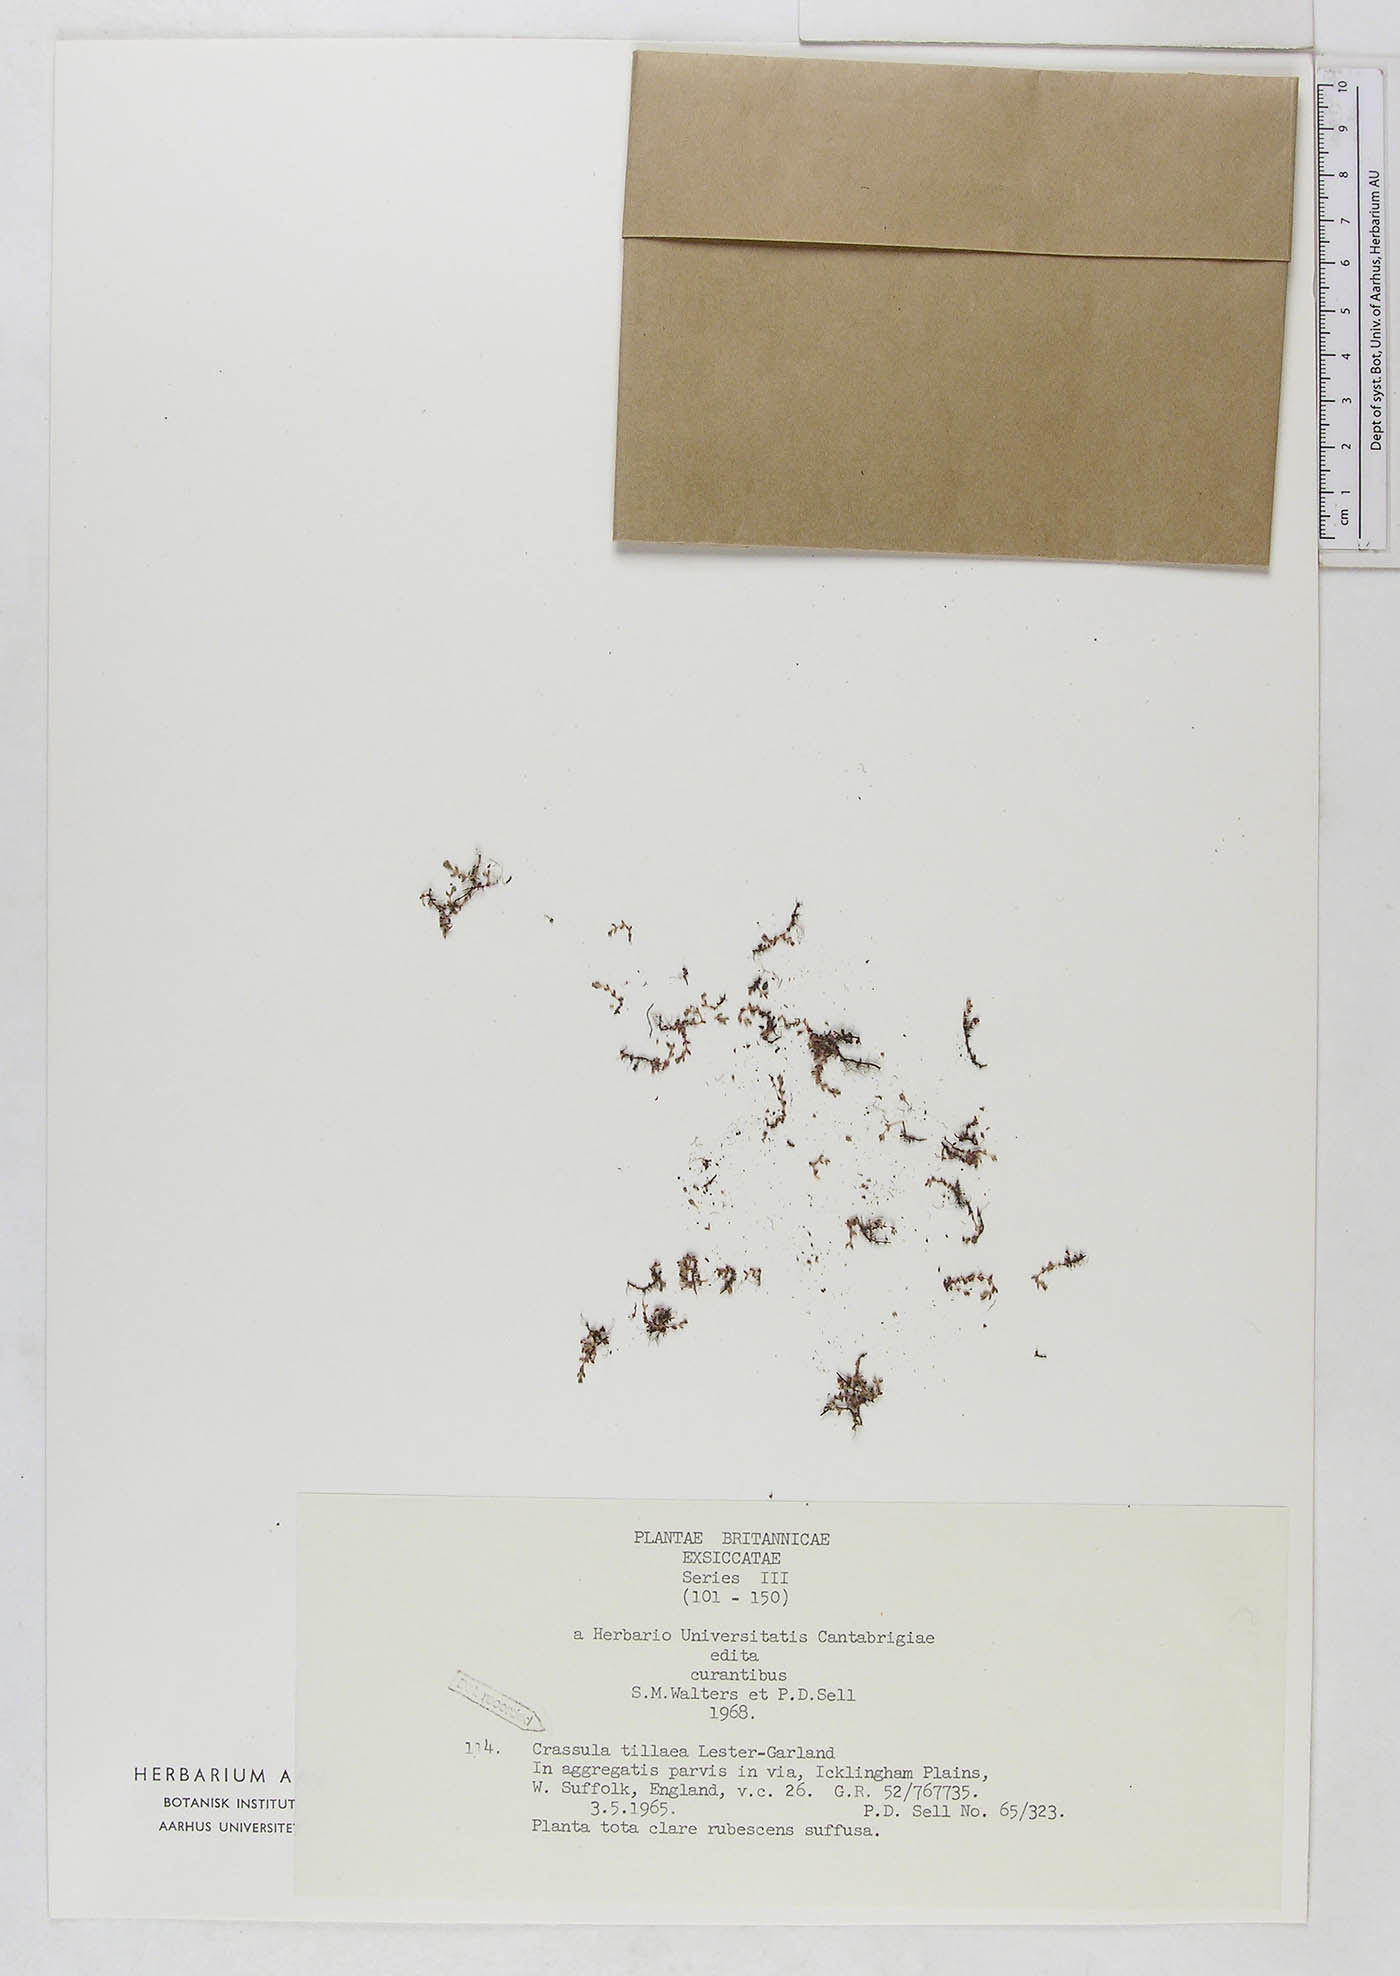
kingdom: Plantae
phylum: Tracheophyta
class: Magnoliopsida
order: Saxifragales
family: Crassulaceae
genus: Crassula
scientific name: Crassula tillaea
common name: Mossy stonecrop
